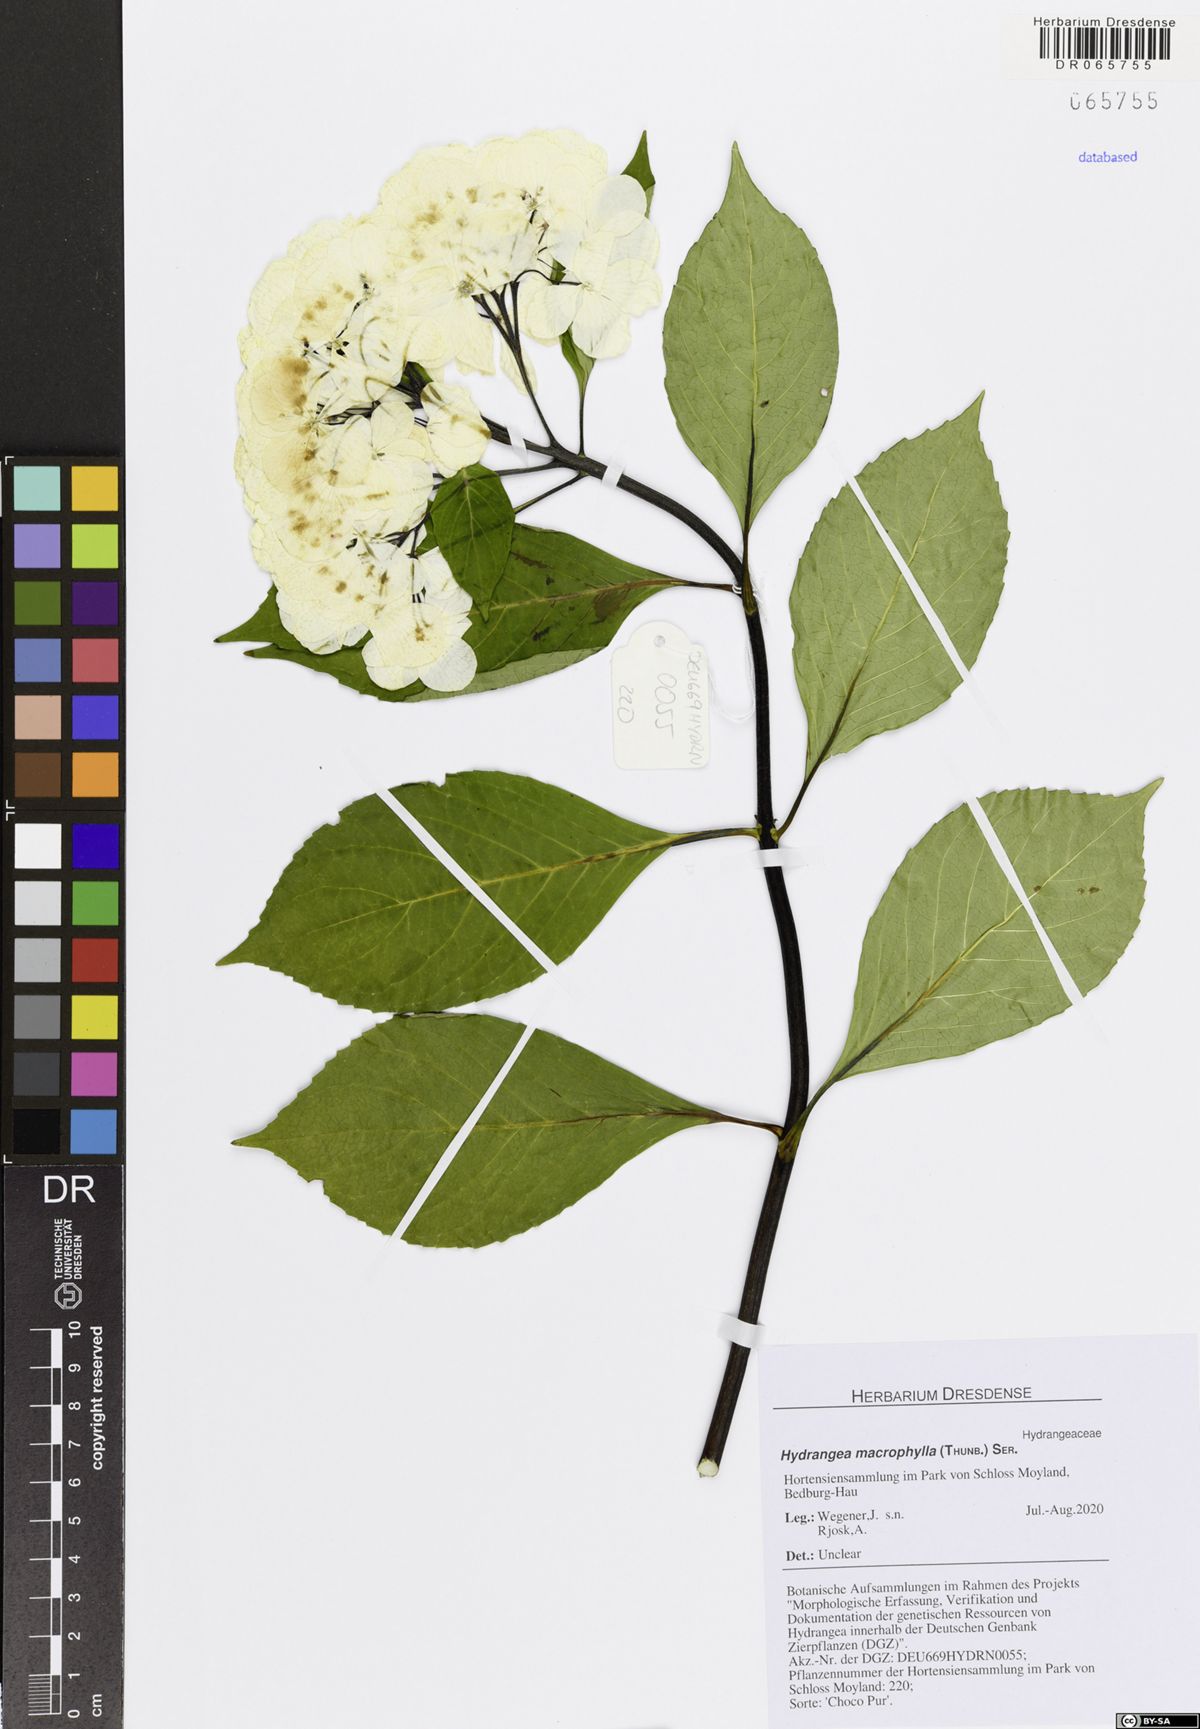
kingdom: Plantae
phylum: Tracheophyta
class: Magnoliopsida
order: Cornales
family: Hydrangeaceae
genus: Hydrangea
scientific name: Hydrangea macrophylla
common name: Hydrangea
